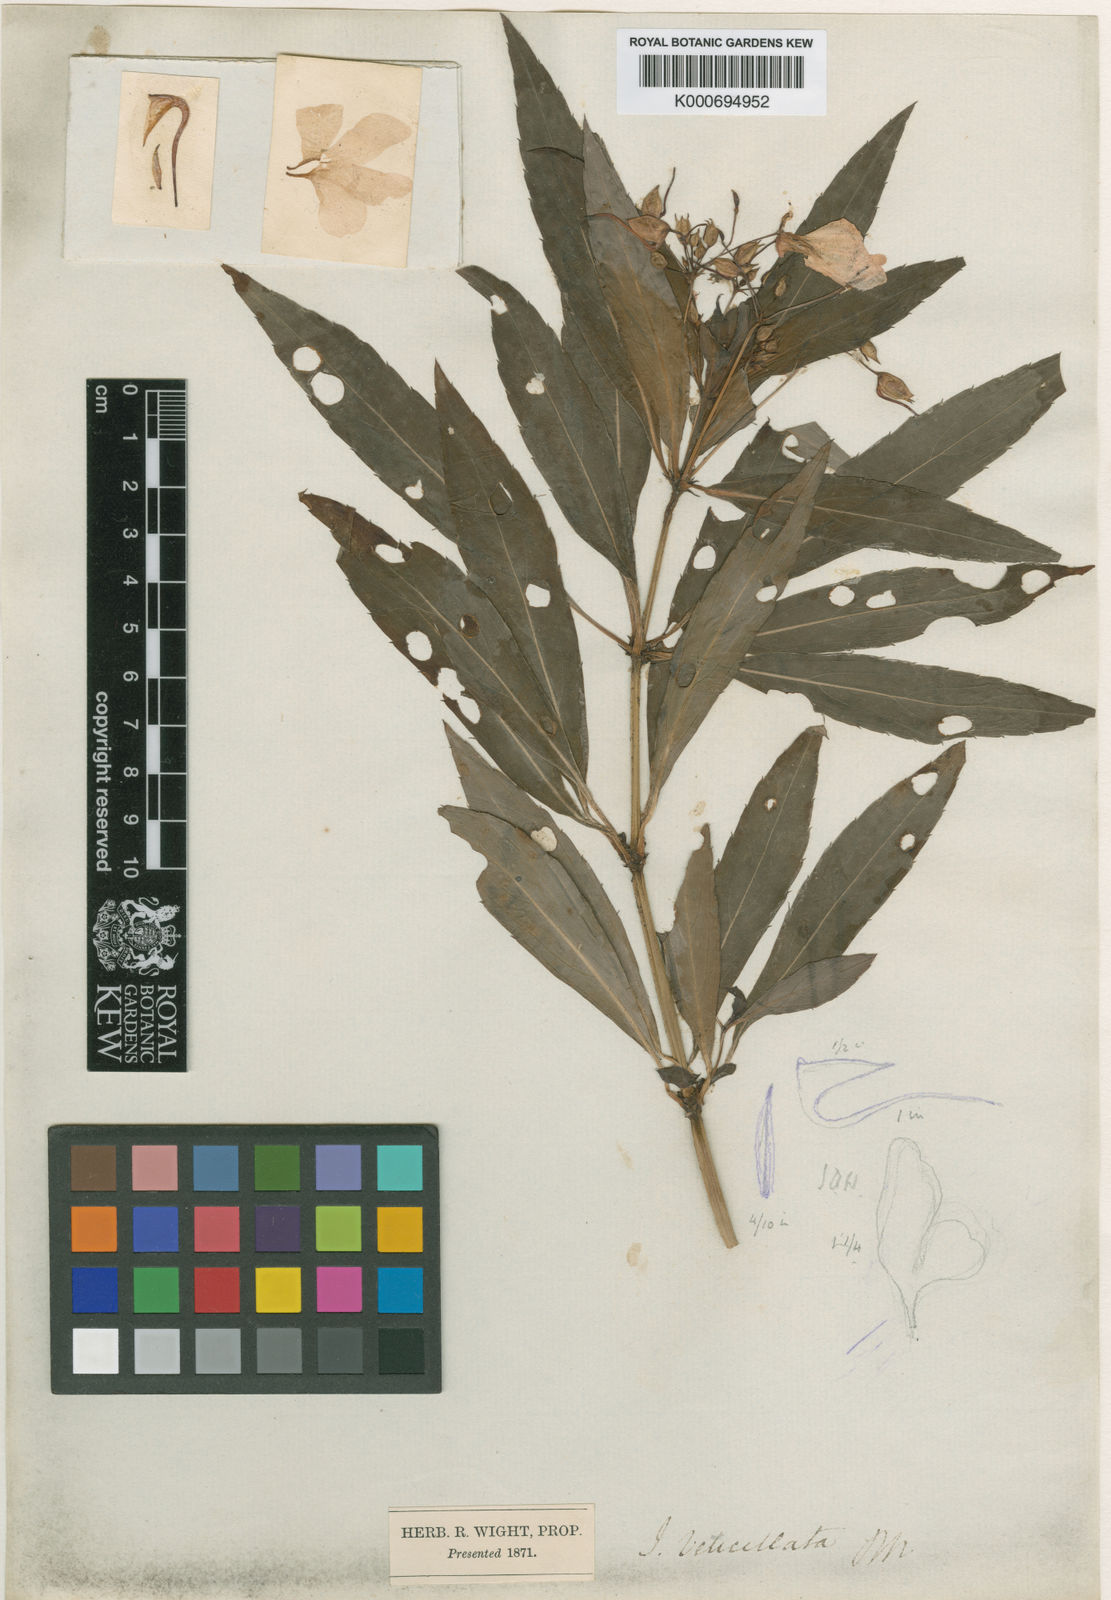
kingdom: Plantae
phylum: Tracheophyta
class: Magnoliopsida
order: Ericales
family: Balsaminaceae
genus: Impatiens
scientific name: Impatiens verticillata
